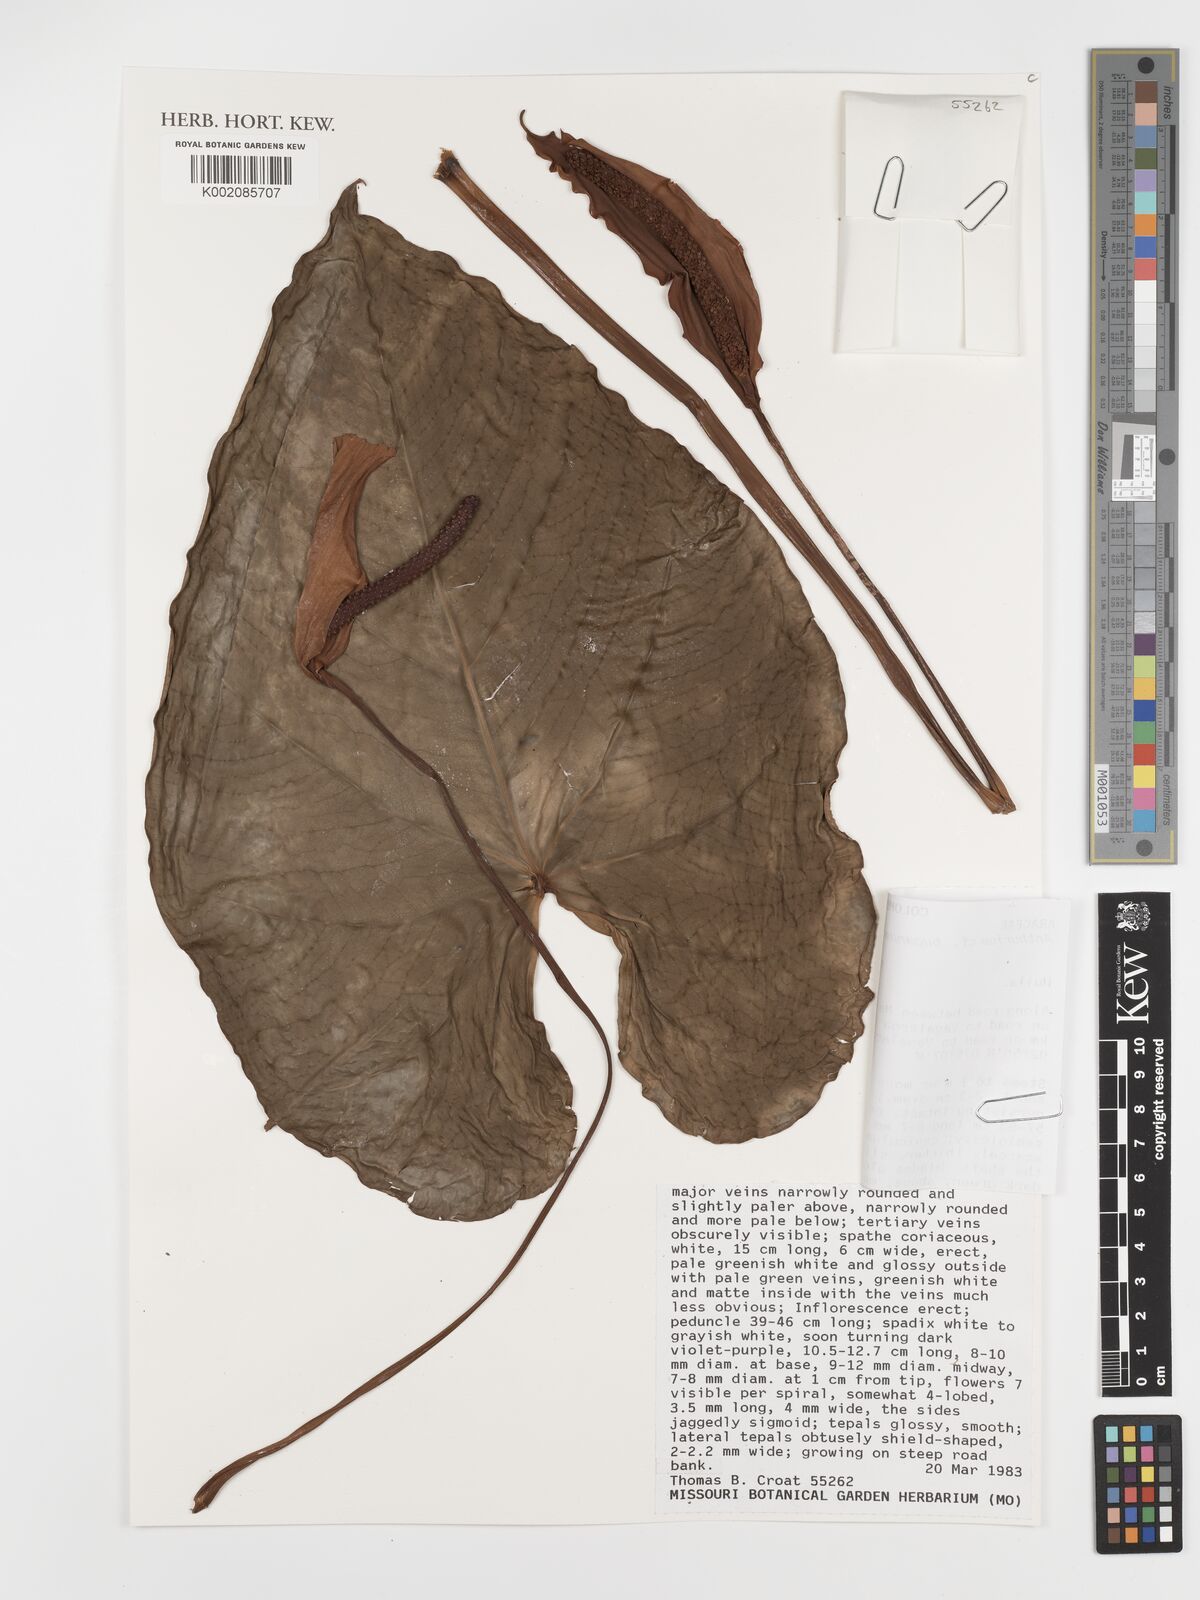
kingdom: Plantae
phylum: Tracheophyta
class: Liliopsida
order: Alismatales
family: Araceae
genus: Anthurium
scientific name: Anthurium buganum
